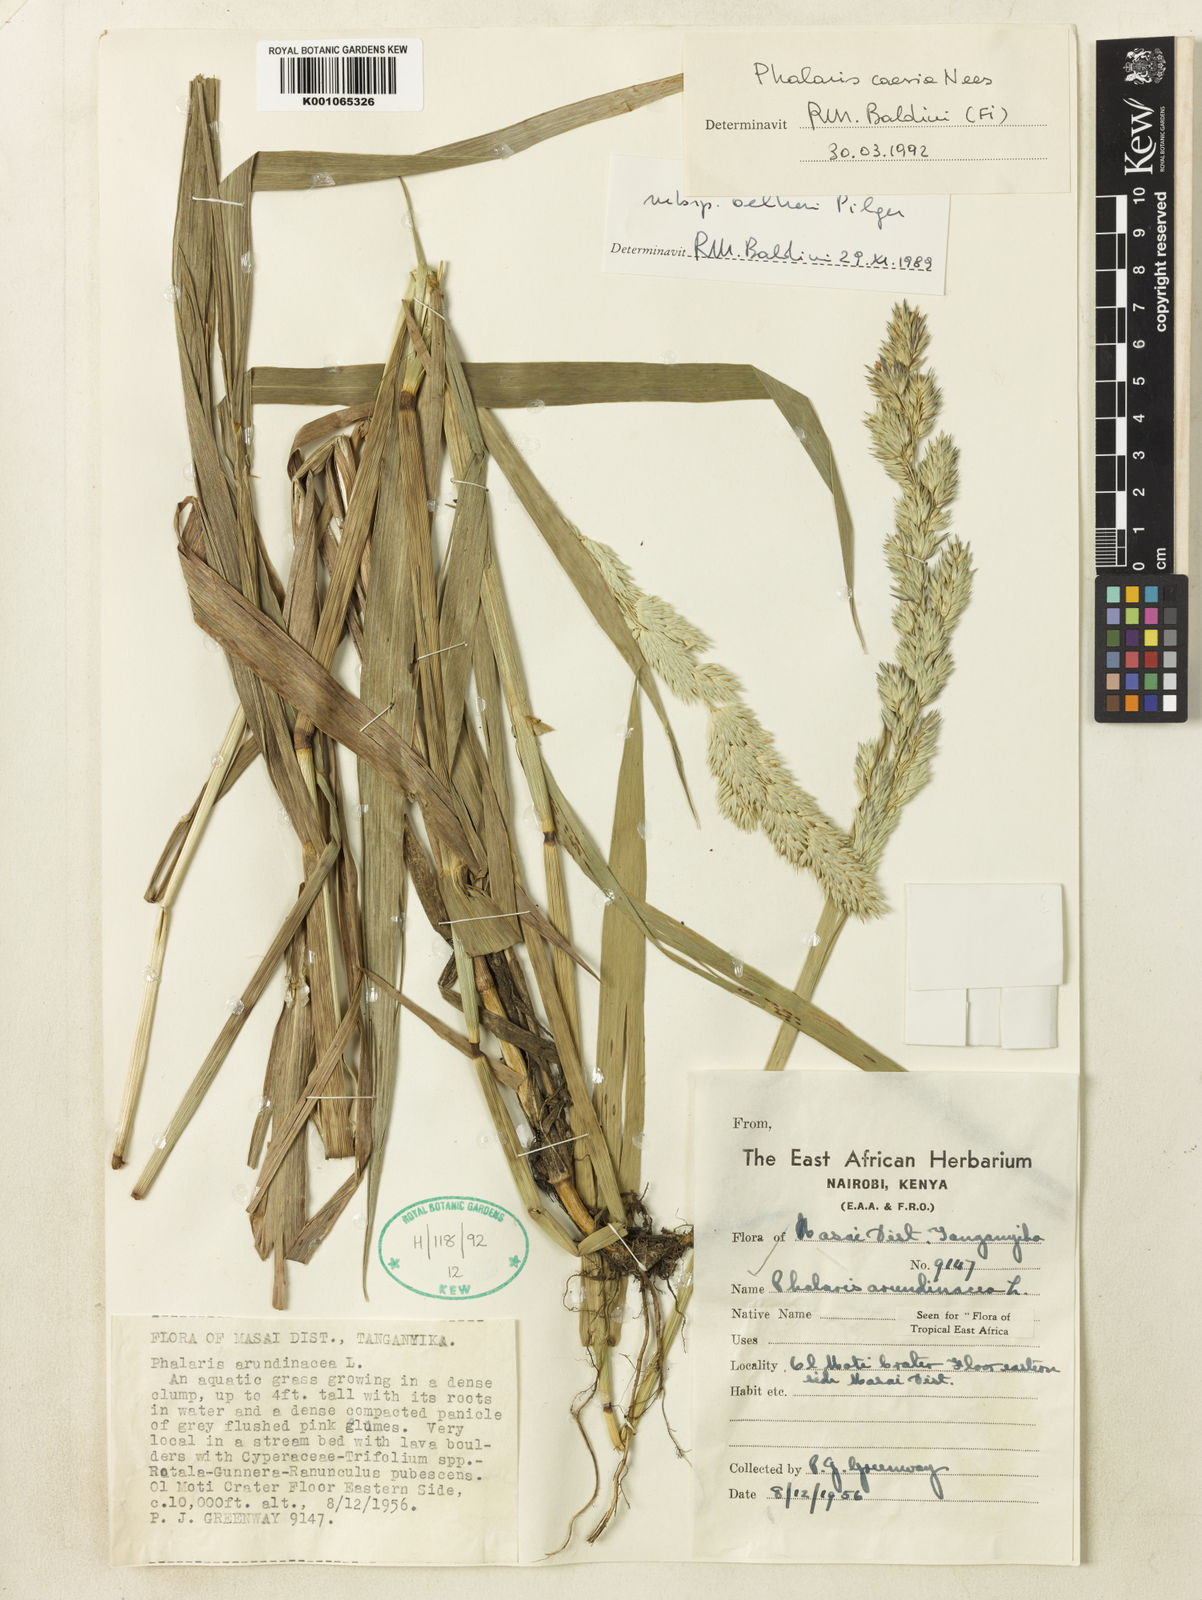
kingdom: Plantae
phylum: Tracheophyta
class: Liliopsida
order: Poales
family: Poaceae
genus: Phalaris
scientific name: Phalaris arundinacea
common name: Reed canary-grass
